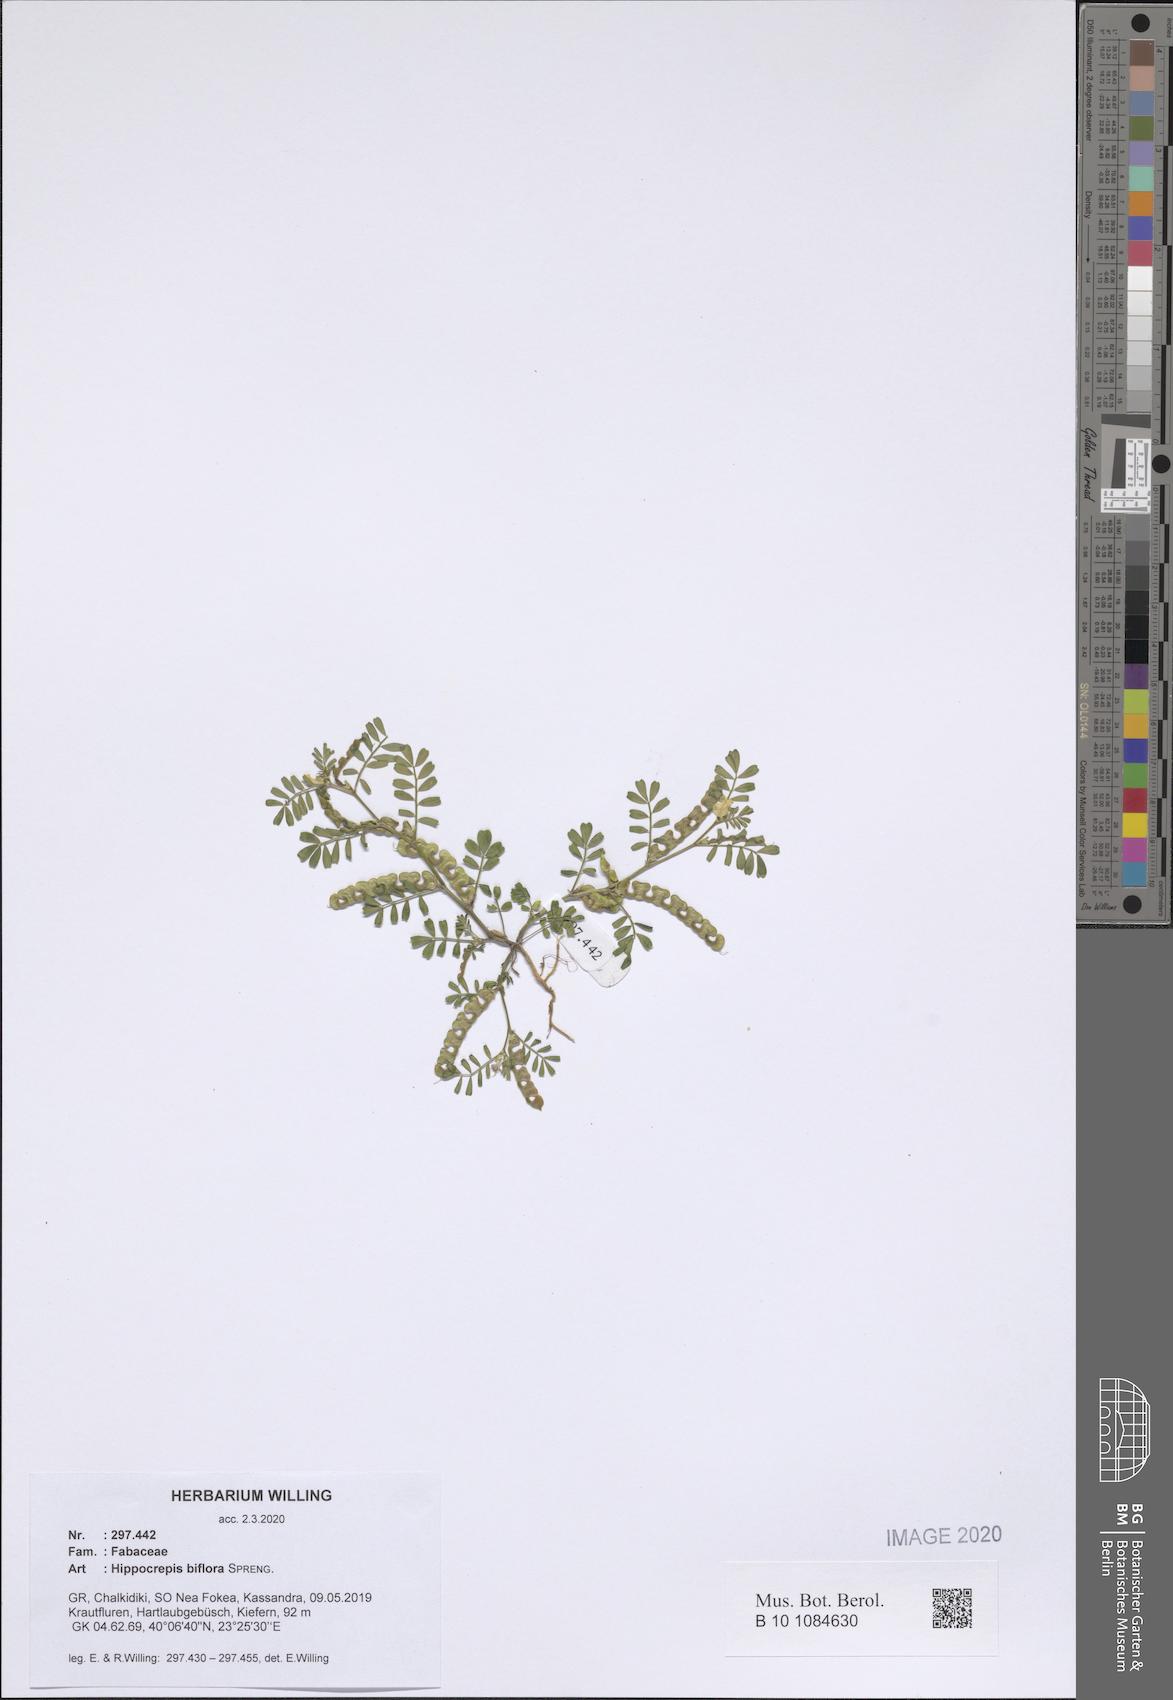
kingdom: Plantae
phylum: Tracheophyta
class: Magnoliopsida
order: Fabales
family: Fabaceae
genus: Hippocrepis
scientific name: Hippocrepis biflora
